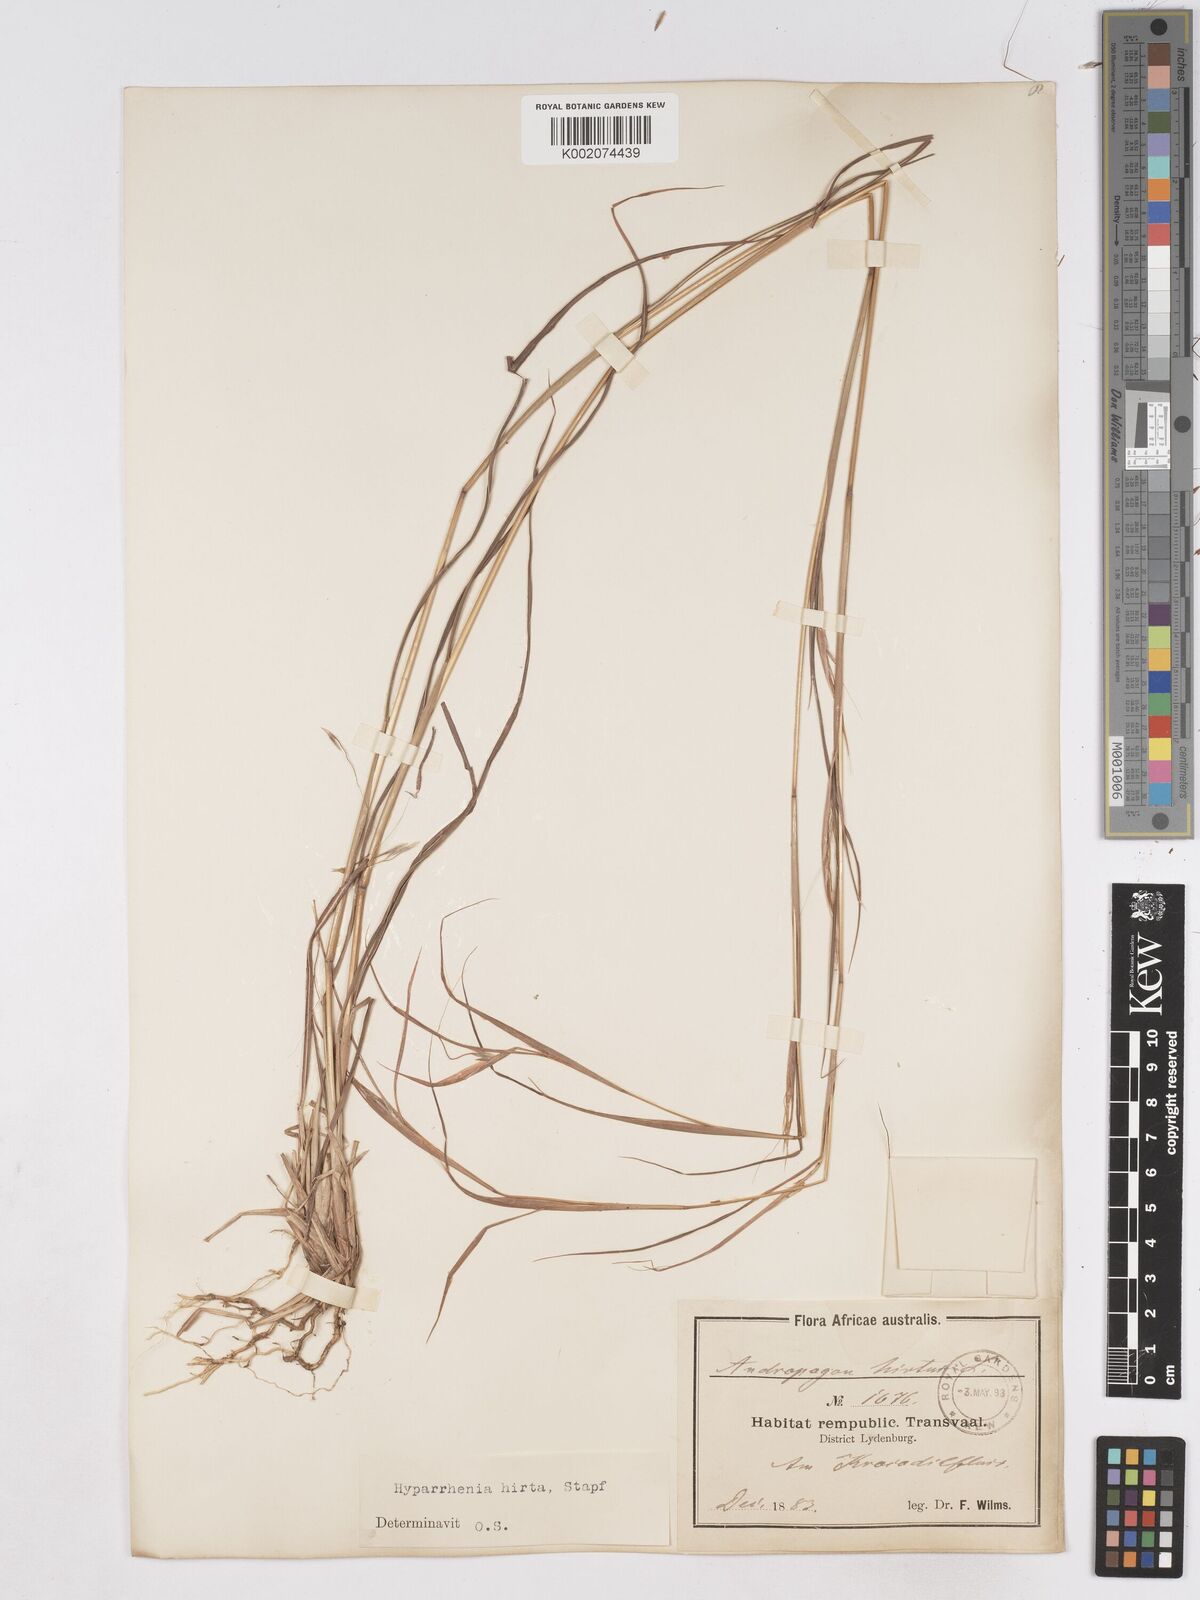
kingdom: Plantae
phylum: Tracheophyta
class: Liliopsida
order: Poales
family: Poaceae
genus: Hyparrhenia
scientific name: Hyparrhenia hirta
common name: Thatching grass
